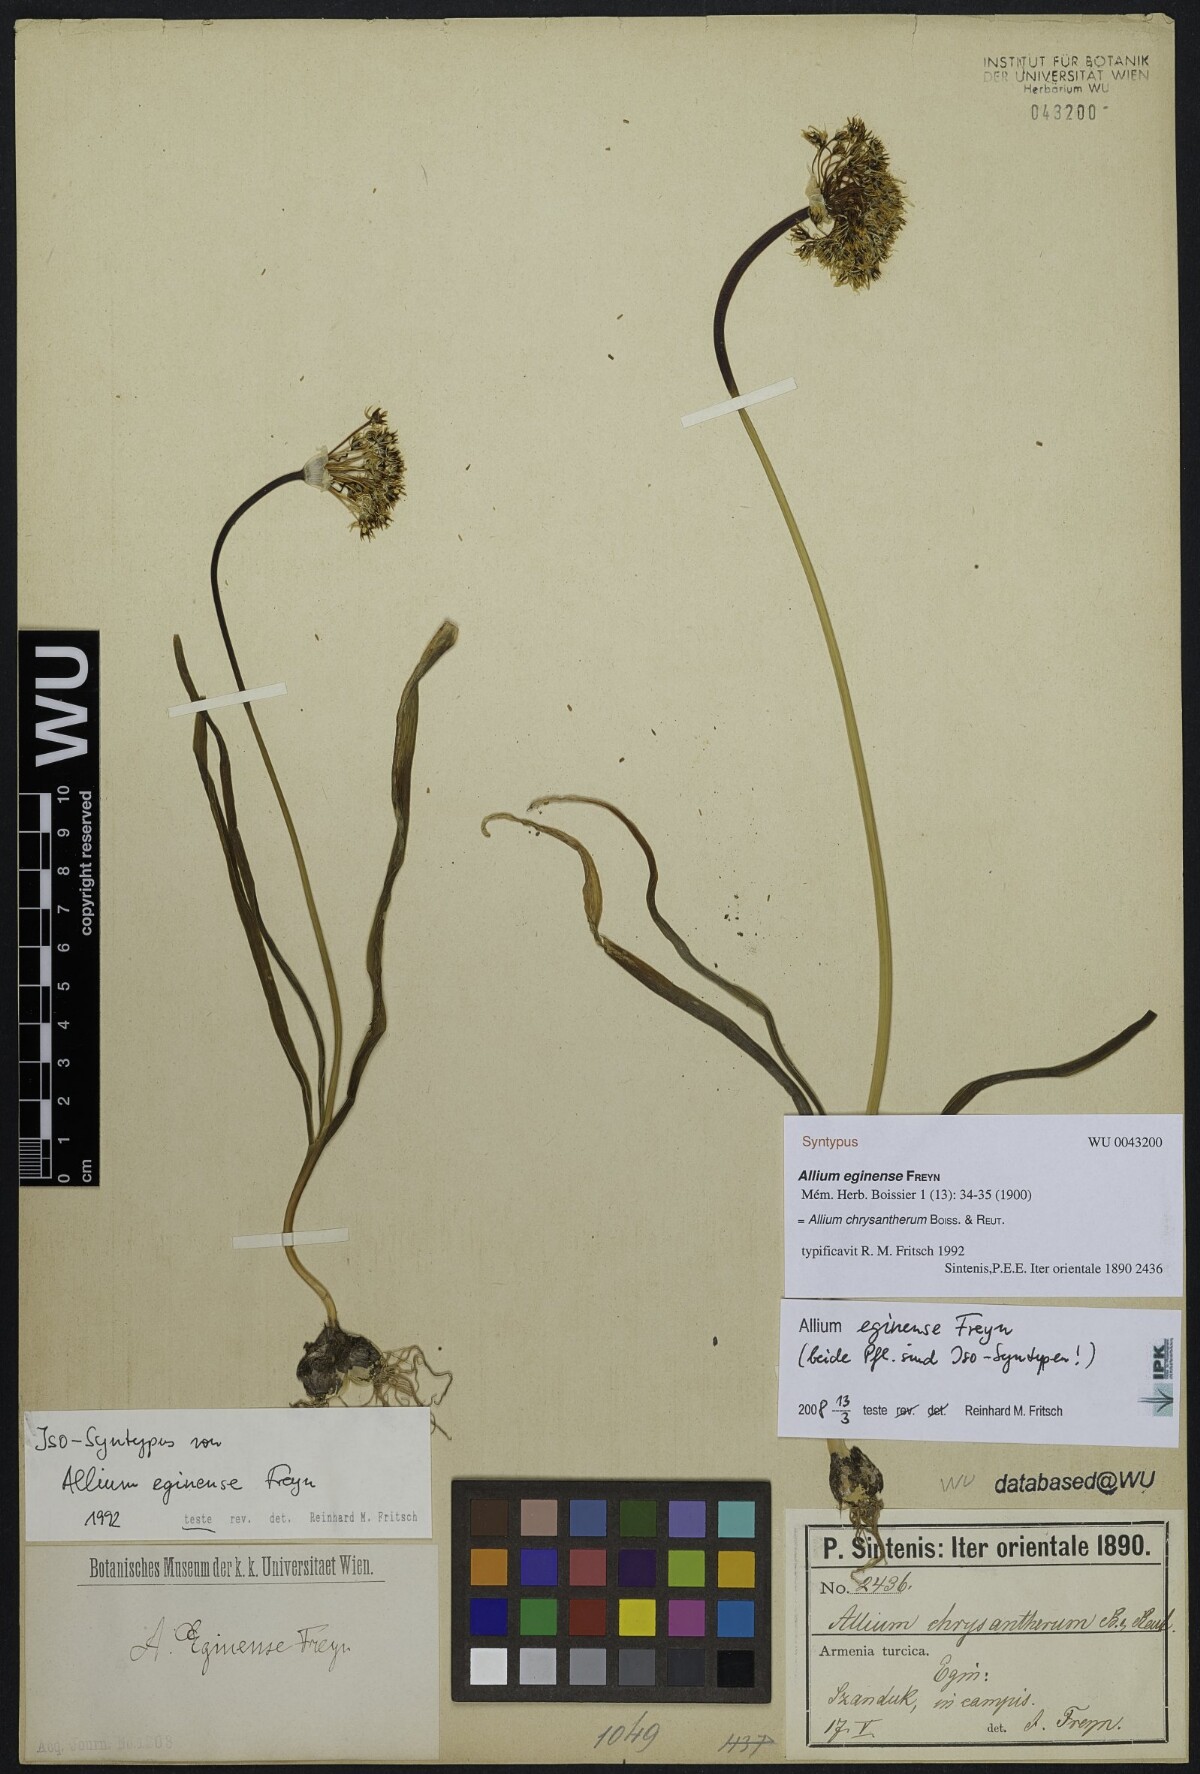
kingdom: Plantae
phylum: Tracheophyta
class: Liliopsida
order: Asparagales
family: Amaryllidaceae
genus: Allium
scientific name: Allium chrysantherum
